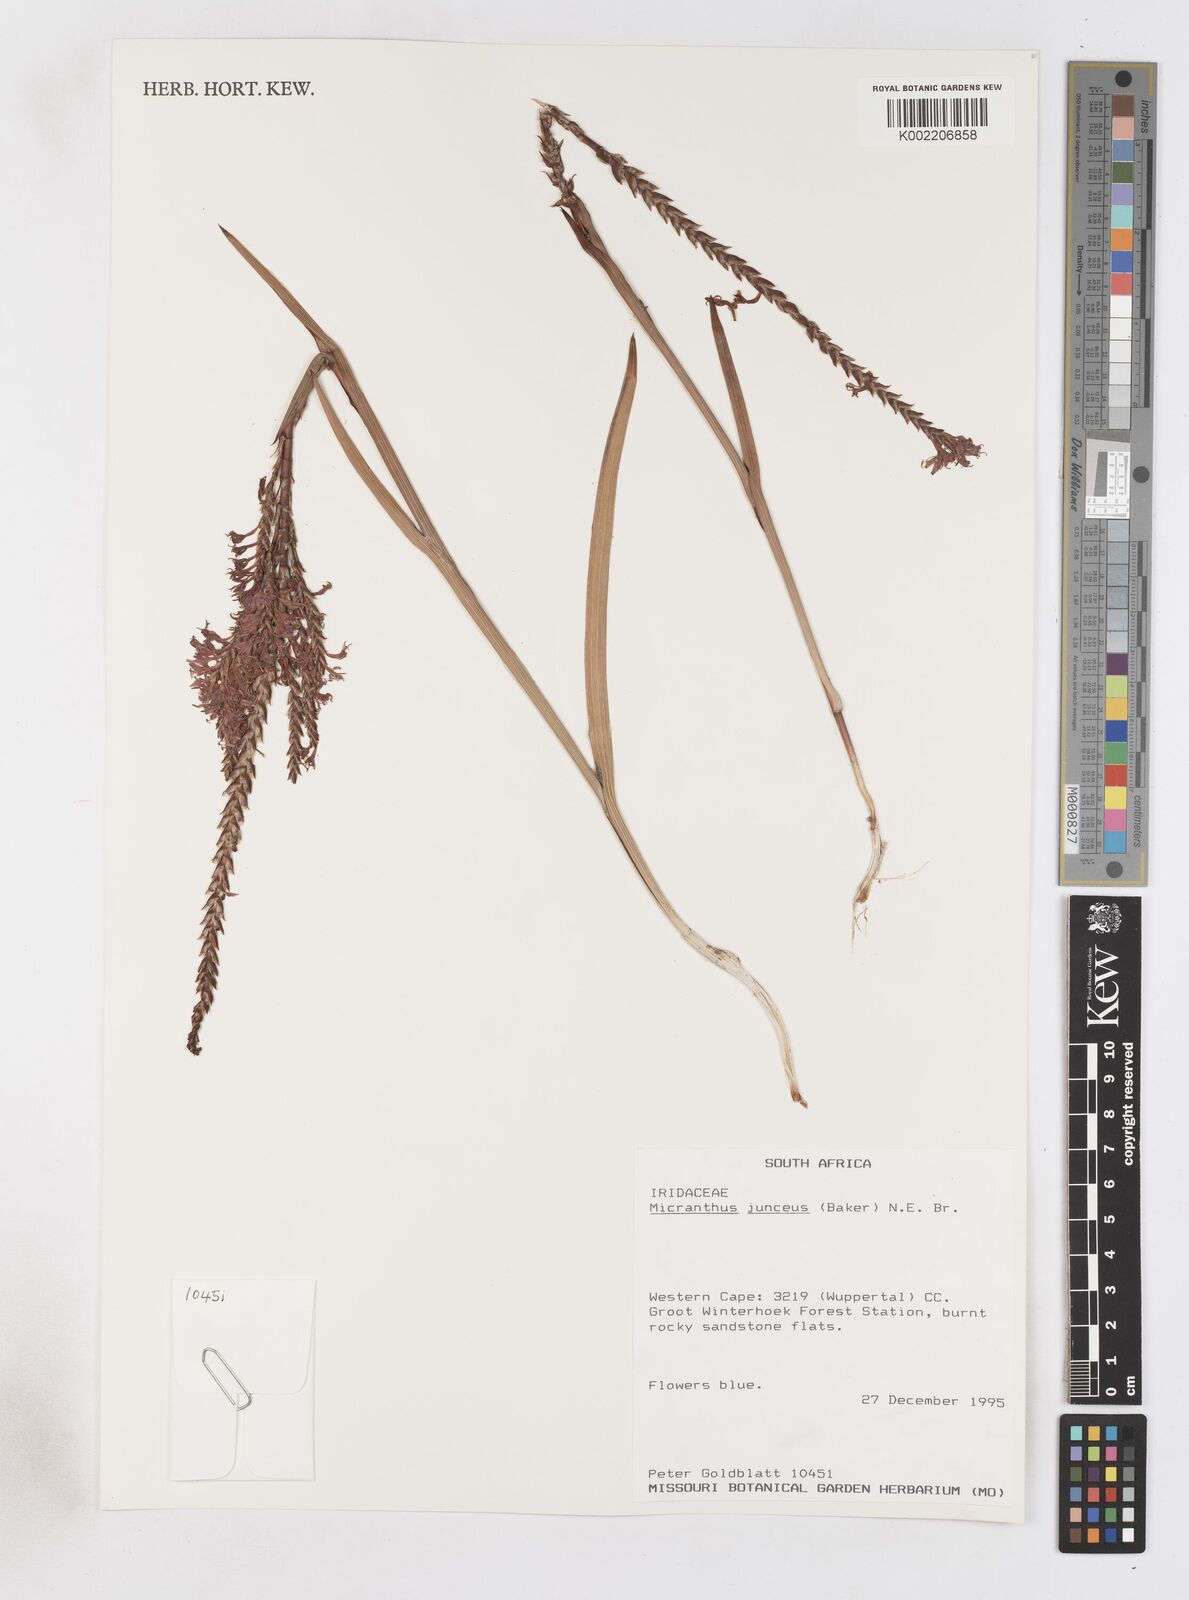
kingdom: Plantae
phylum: Tracheophyta
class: Liliopsida
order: Asparagales
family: Iridaceae
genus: Micranthus
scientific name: Micranthus plantagineus
